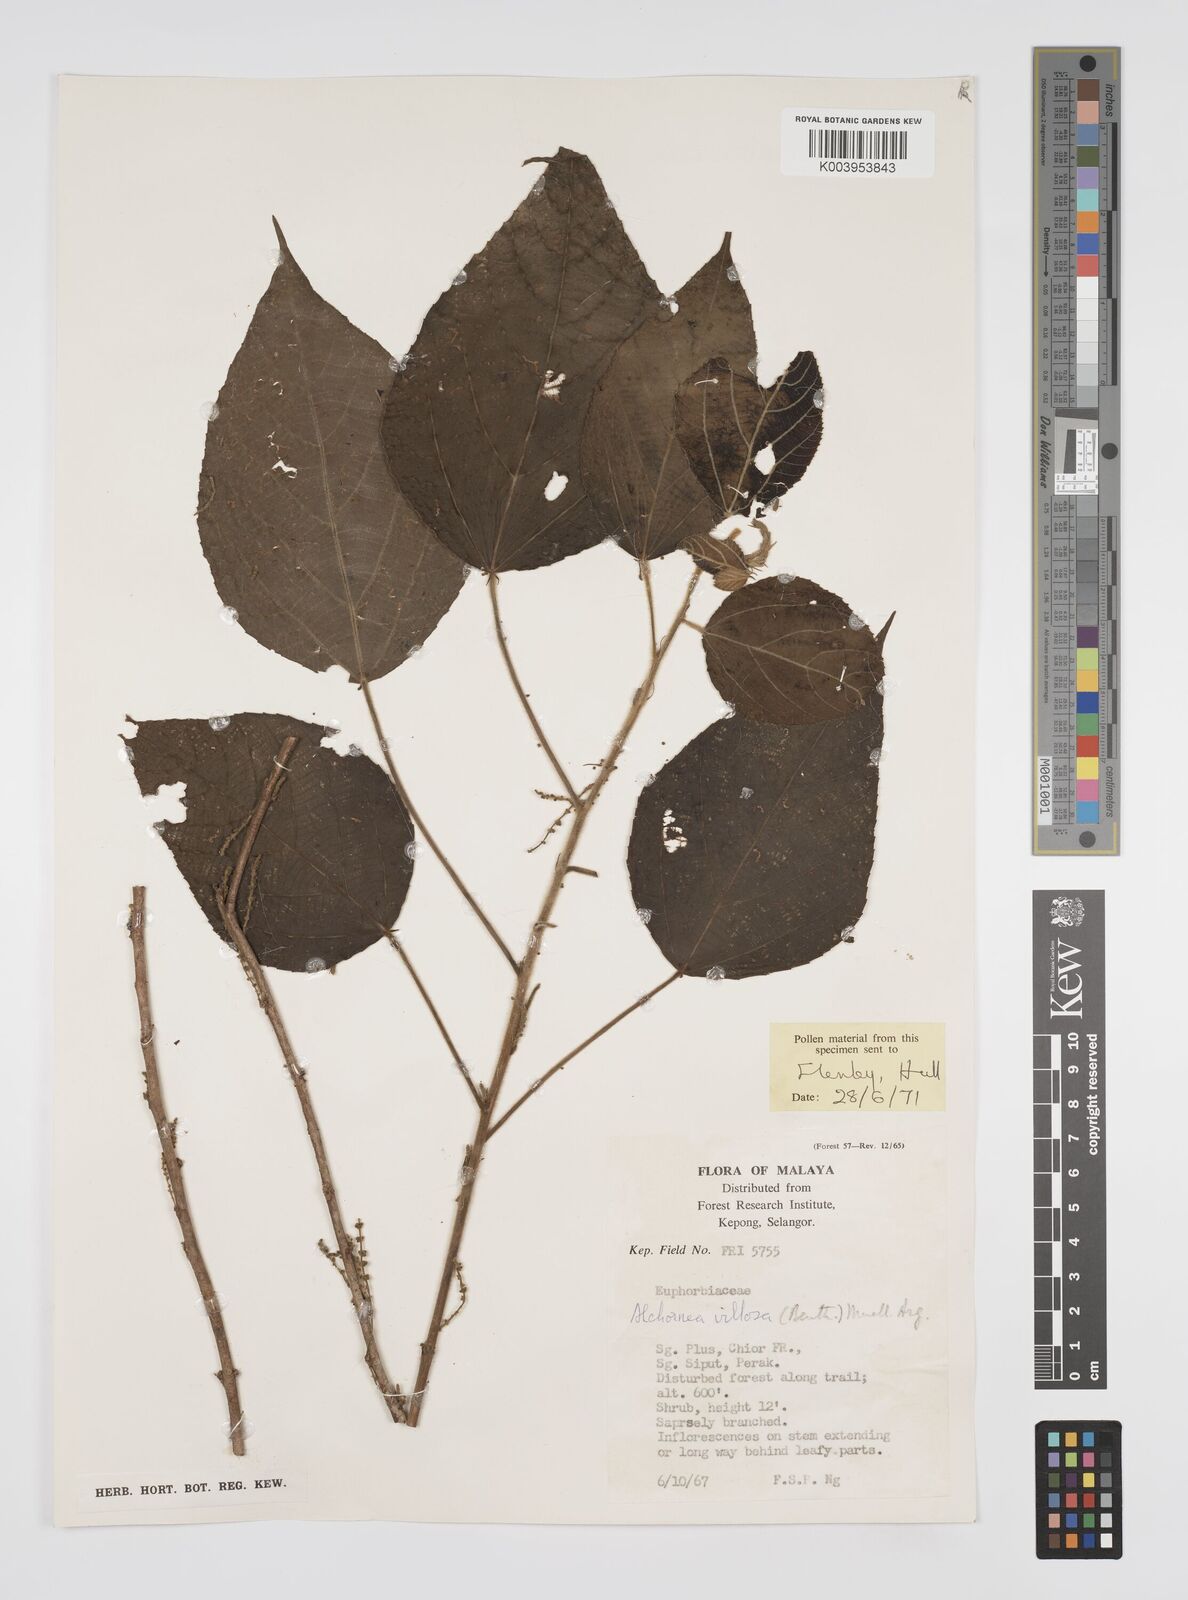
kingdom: Plantae
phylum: Tracheophyta
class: Magnoliopsida
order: Malpighiales
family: Euphorbiaceae
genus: Alchornea
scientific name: Alchornea tiliifolia
